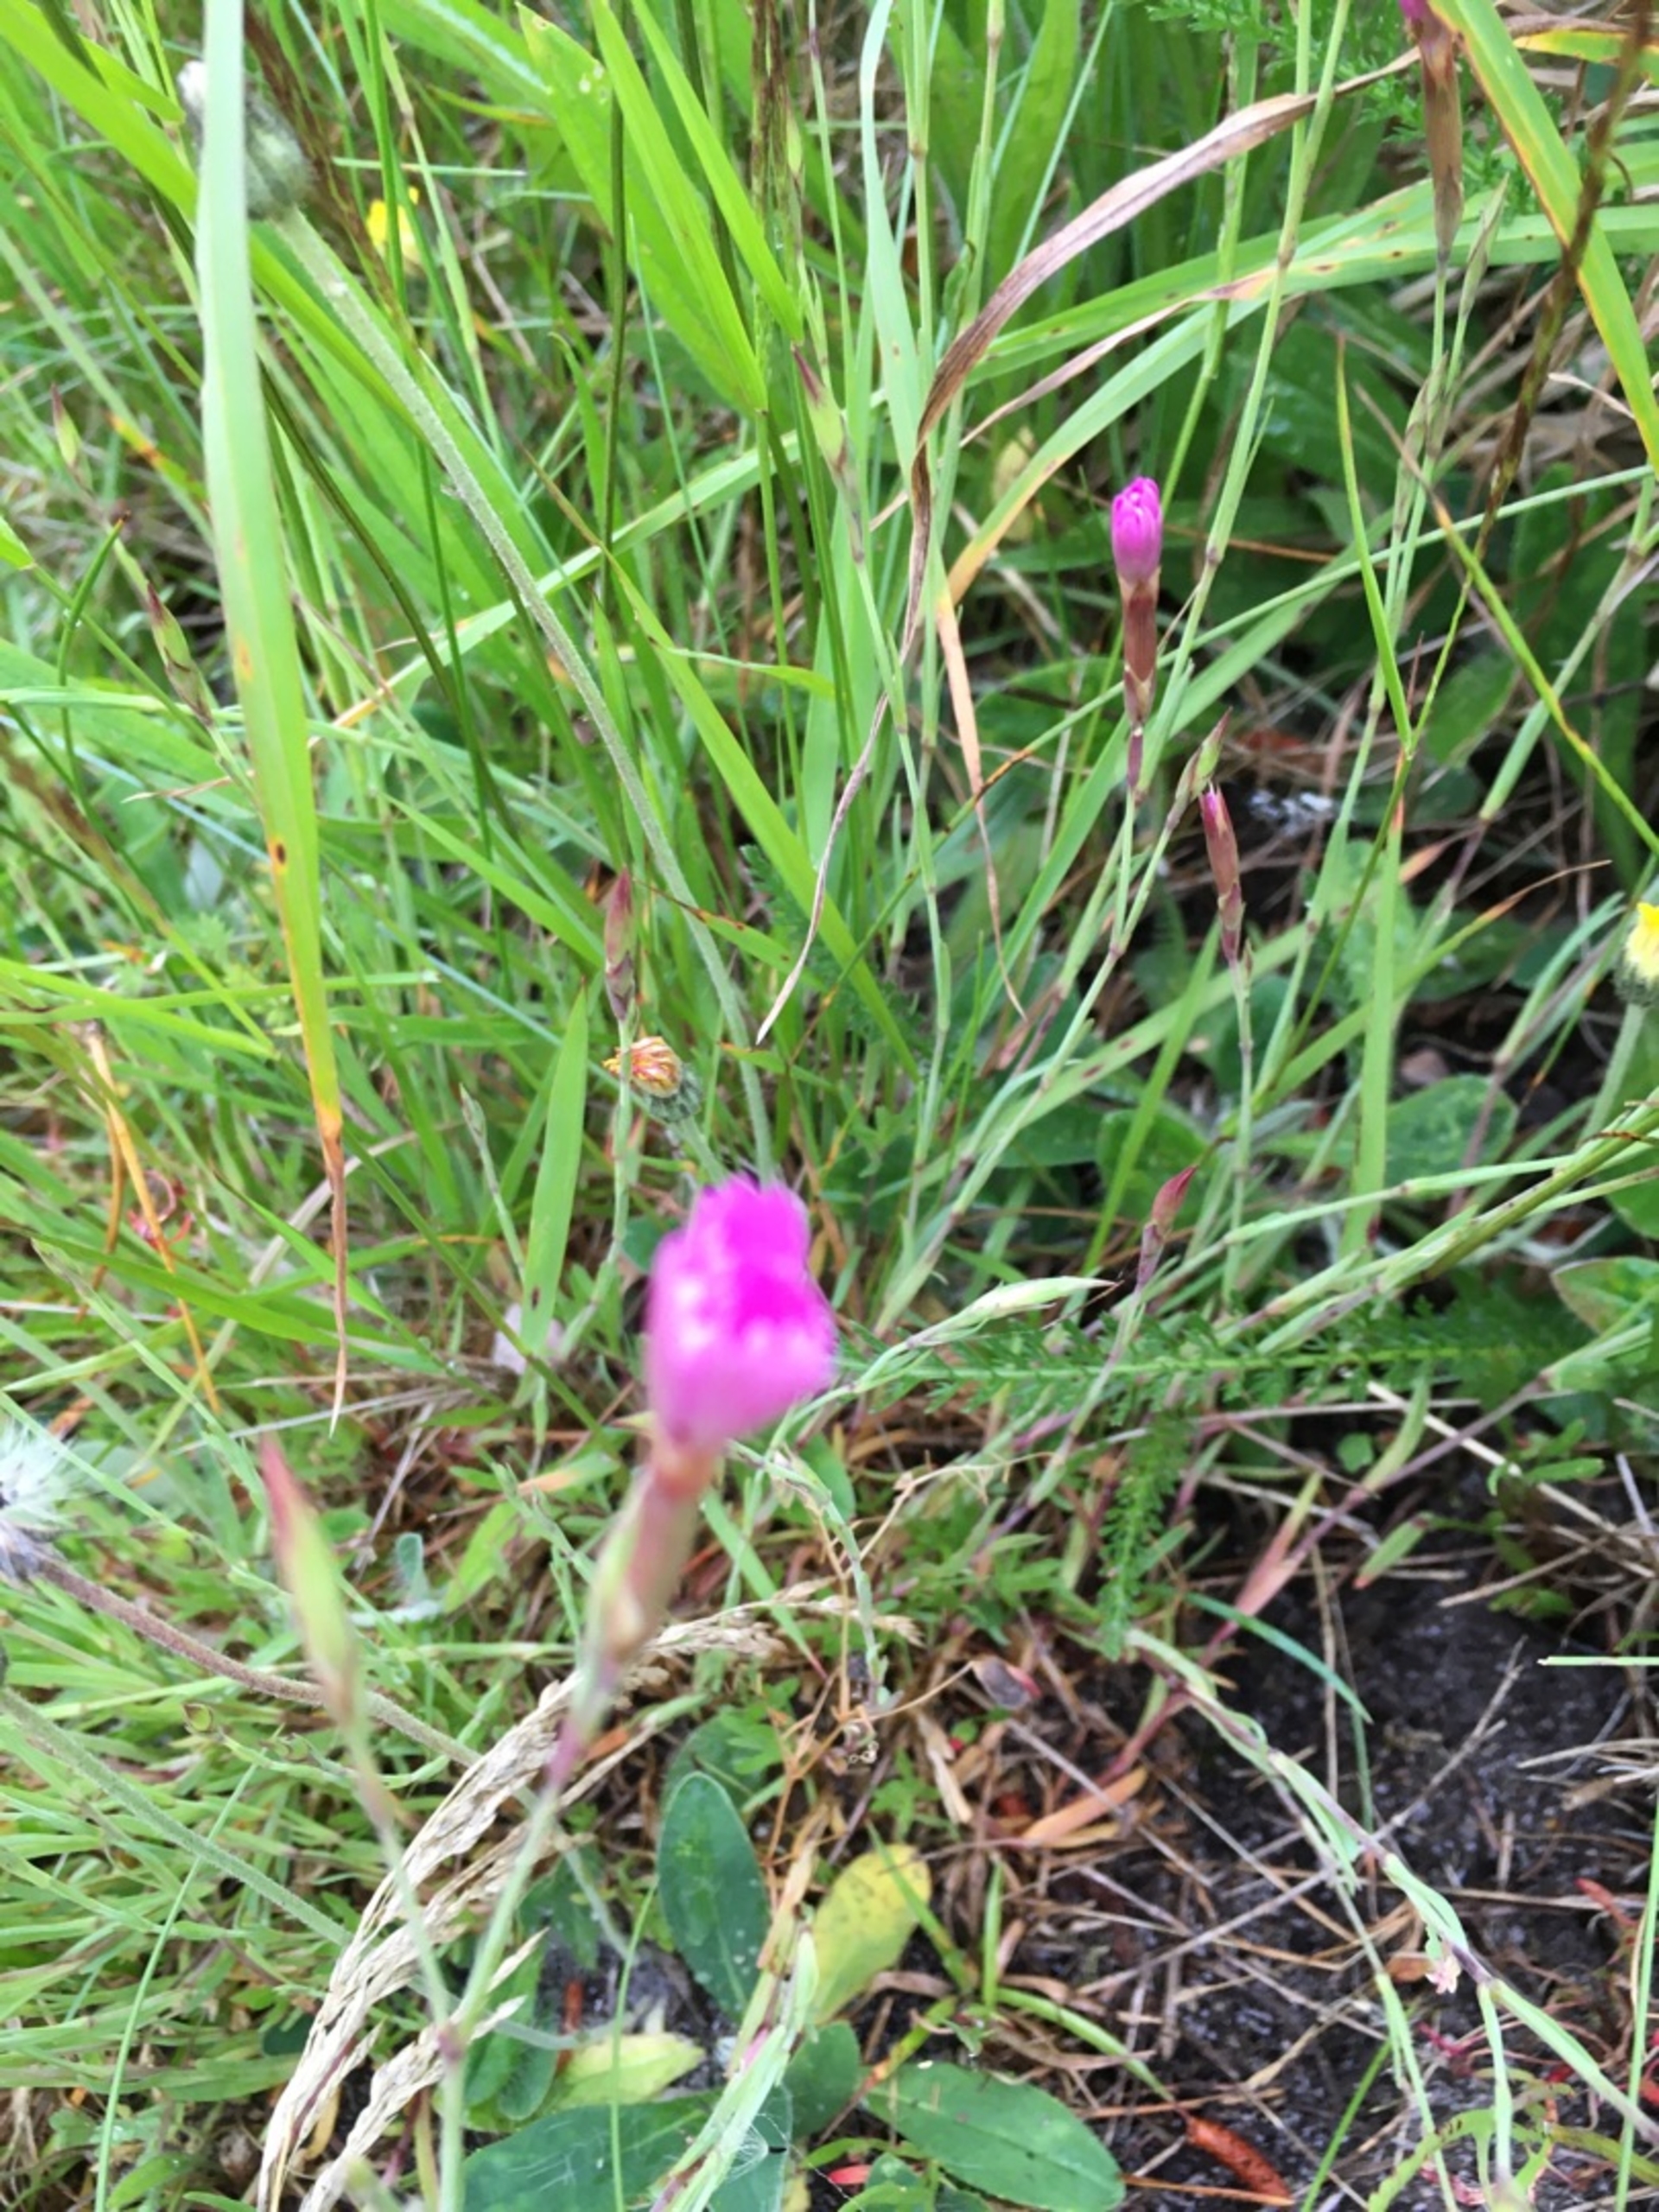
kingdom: Plantae
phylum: Tracheophyta
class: Magnoliopsida
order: Caryophyllales
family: Caryophyllaceae
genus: Dianthus
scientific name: Dianthus deltoides
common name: Bakke-nellike
